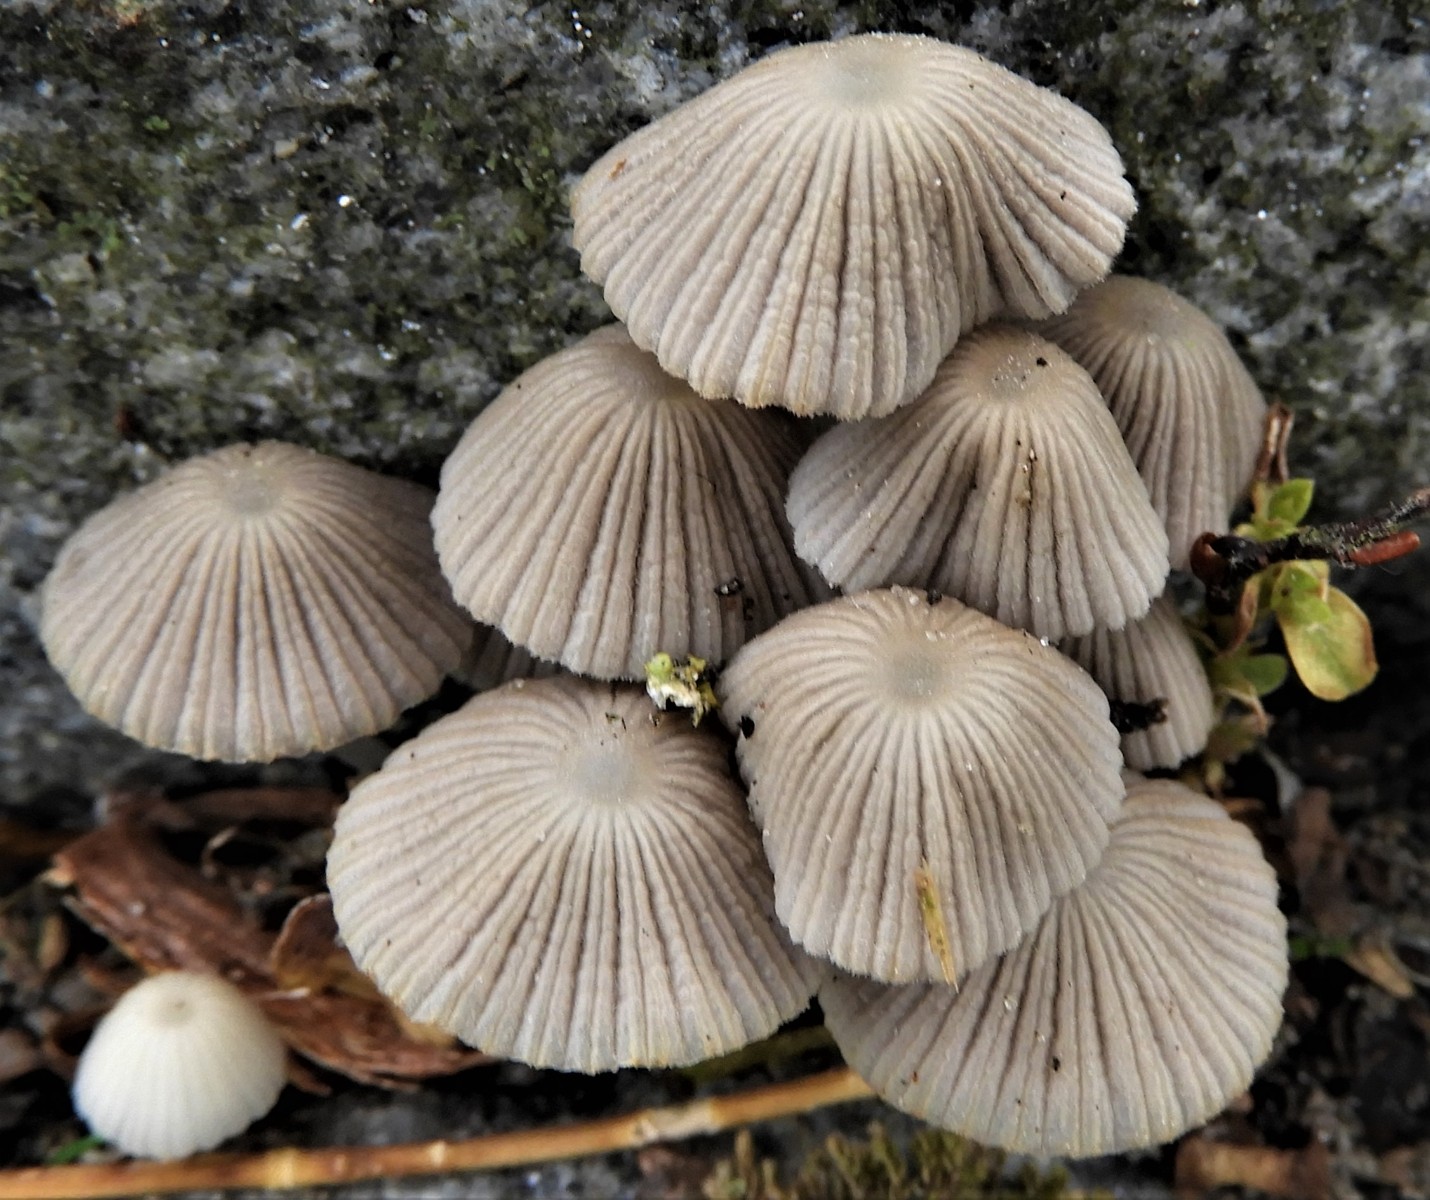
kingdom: Fungi
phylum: Basidiomycota
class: Agaricomycetes
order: Agaricales
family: Psathyrellaceae
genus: Coprinellus
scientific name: Coprinellus disseminatus
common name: bredsået blækhat
